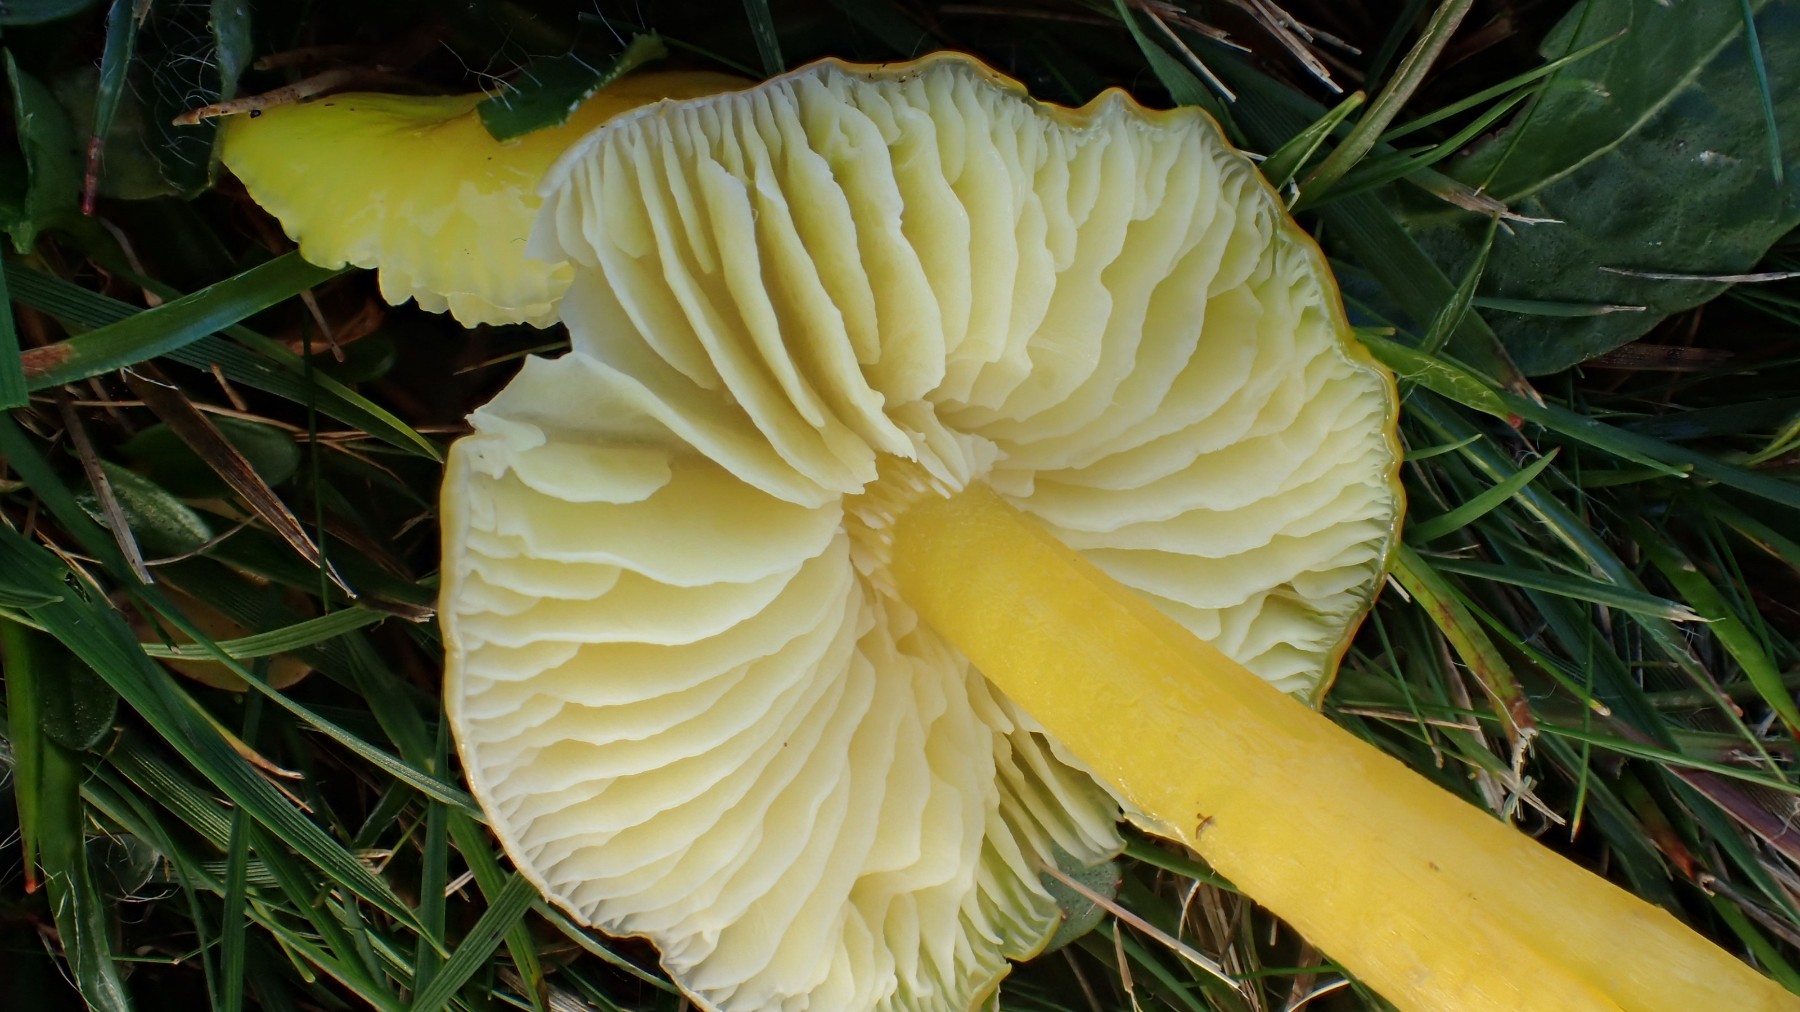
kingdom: Fungi
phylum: Basidiomycota
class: Agaricomycetes
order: Agaricales
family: Hygrophoraceae
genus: Hygrocybe
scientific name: Hygrocybe chlorophana
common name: gul vokshat
